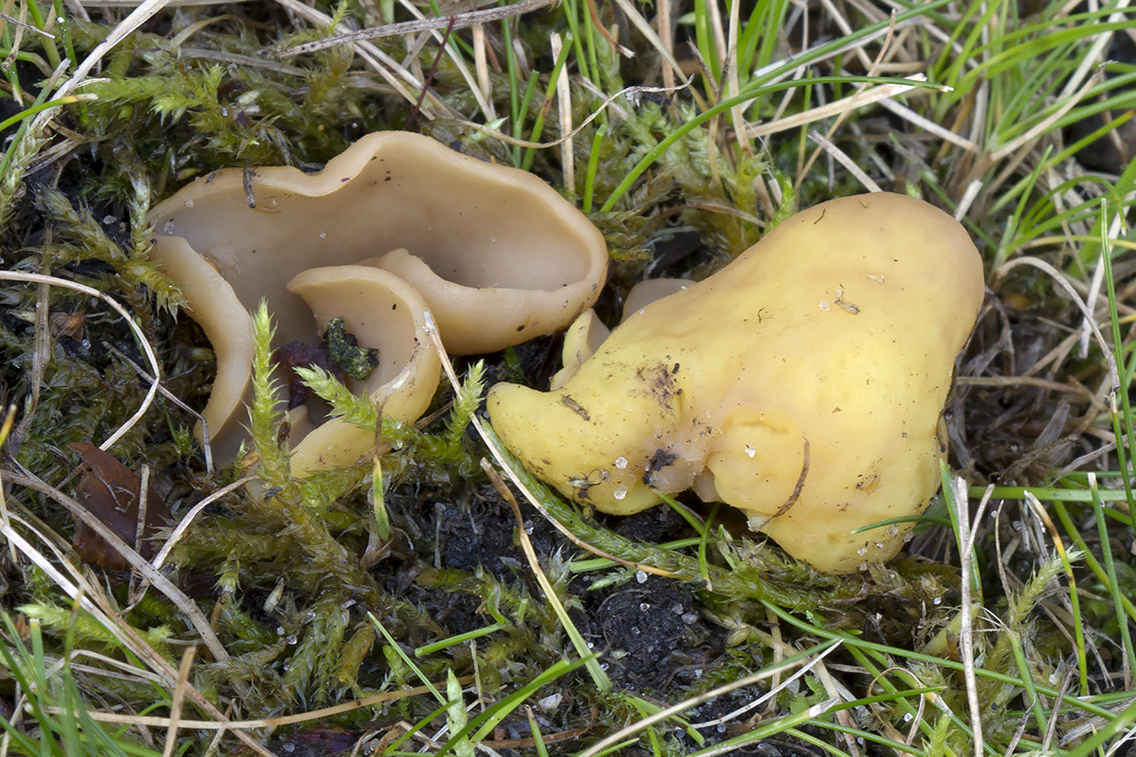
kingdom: Fungi
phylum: Ascomycota
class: Pezizomycetes
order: Pezizales
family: Otideaceae
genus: Otidea
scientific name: Otidea cantharella
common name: citrongul ørebæger
